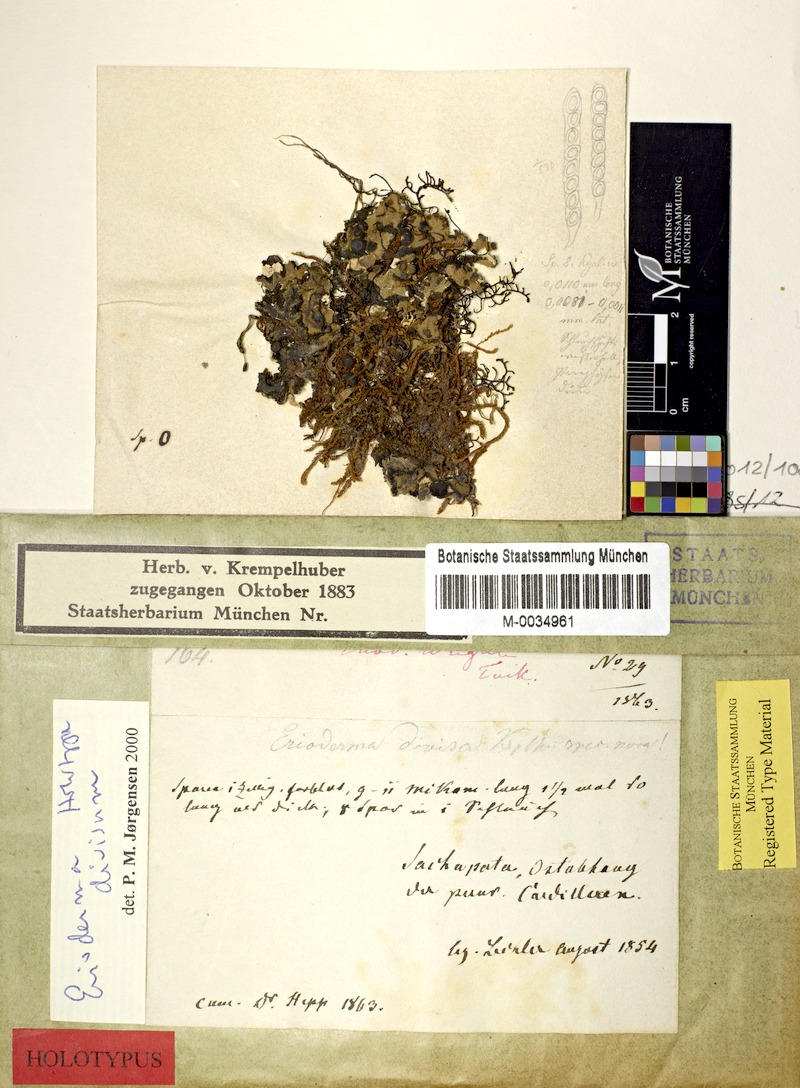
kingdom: Fungi
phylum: Ascomycota
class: Lecanoromycetes
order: Peltigerales
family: Pannariaceae
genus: Erioderma
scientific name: Erioderma divisum
